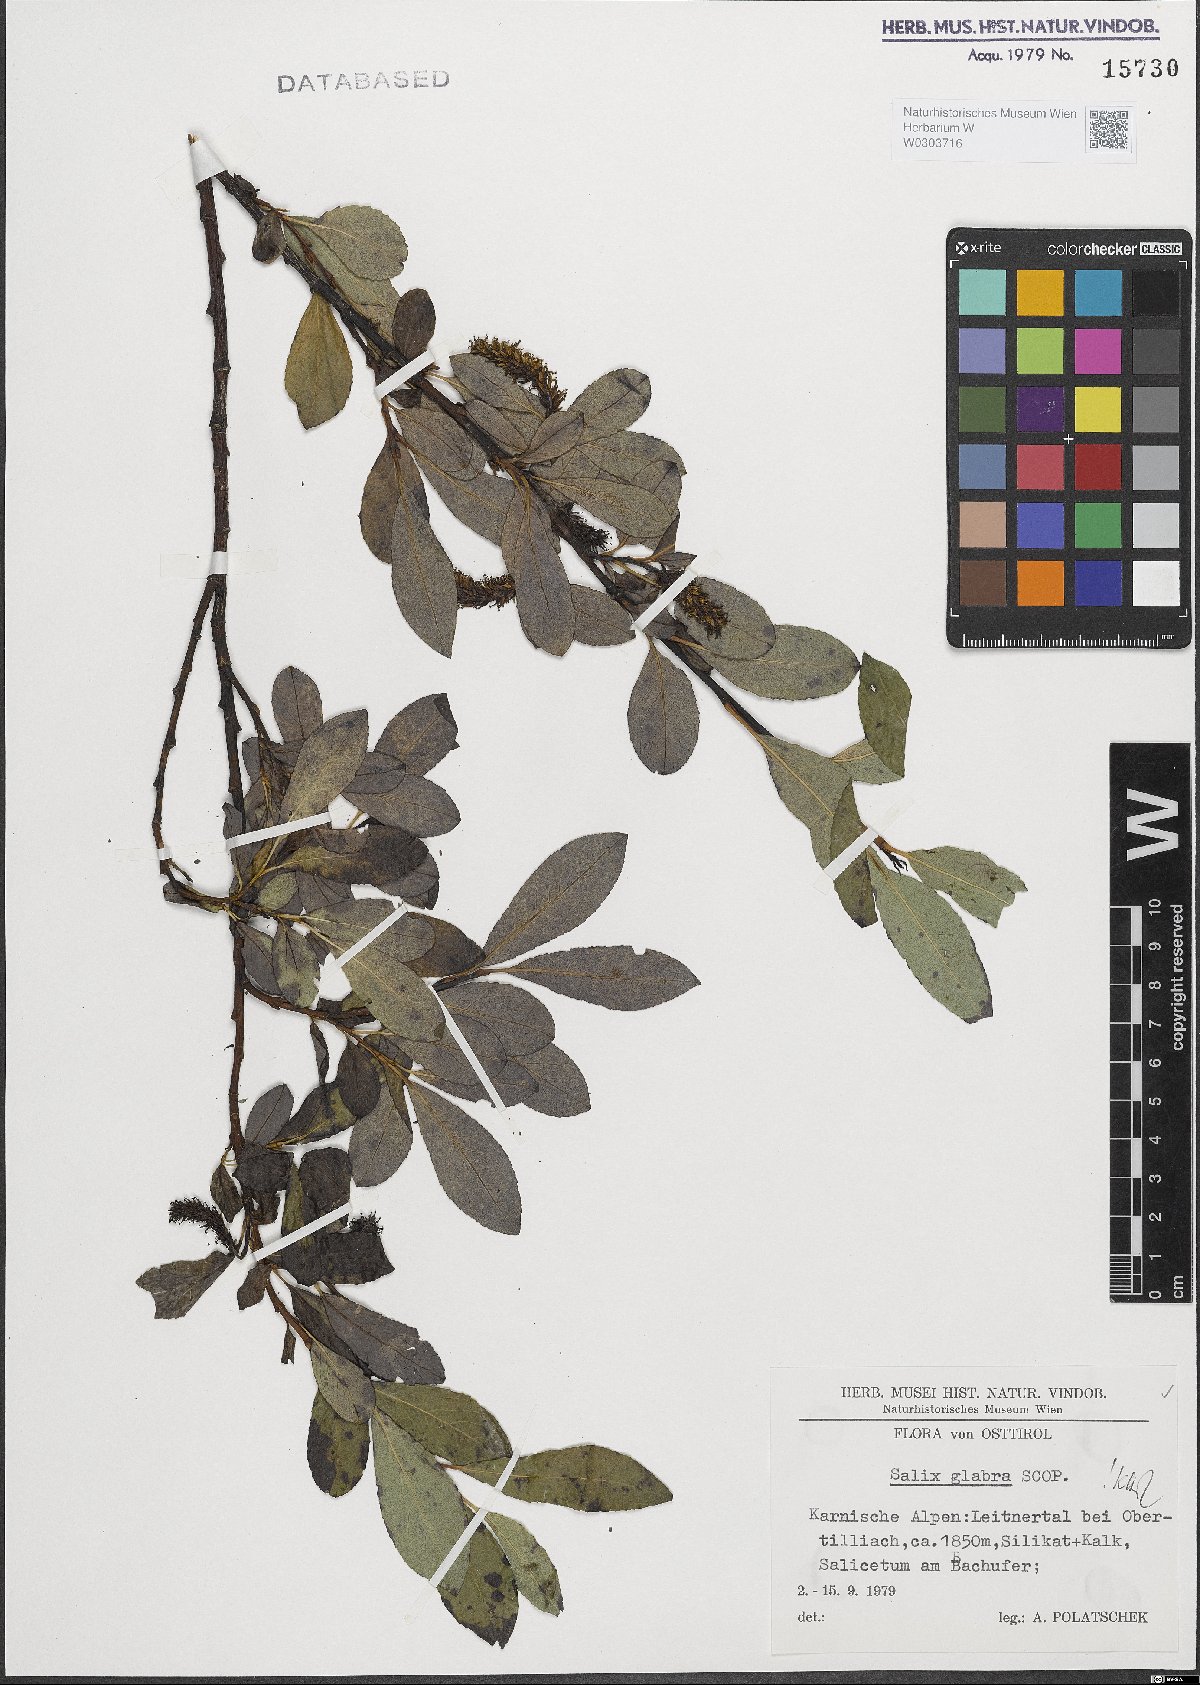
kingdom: Plantae
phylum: Tracheophyta
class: Magnoliopsida
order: Malpighiales
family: Salicaceae
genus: Salix
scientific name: Salix glabra
